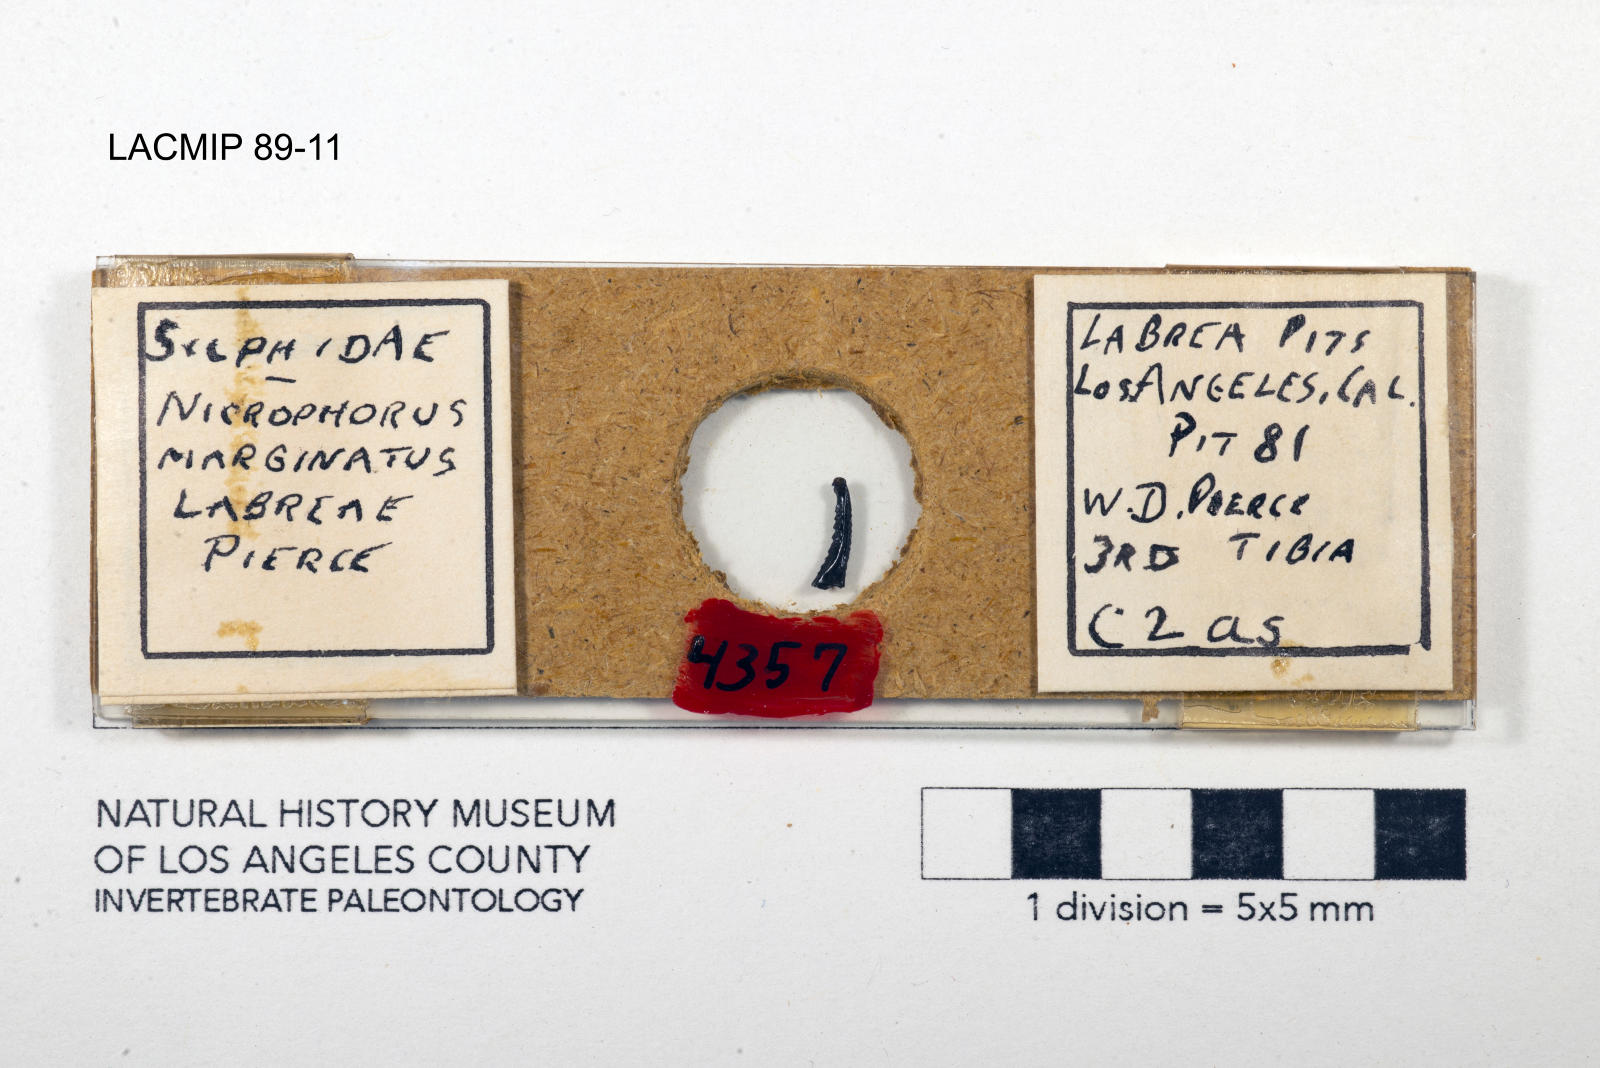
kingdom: Animalia
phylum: Arthropoda
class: Insecta
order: Coleoptera
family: Staphylinidae
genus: Nicrophorus
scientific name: Nicrophorus marginatus
